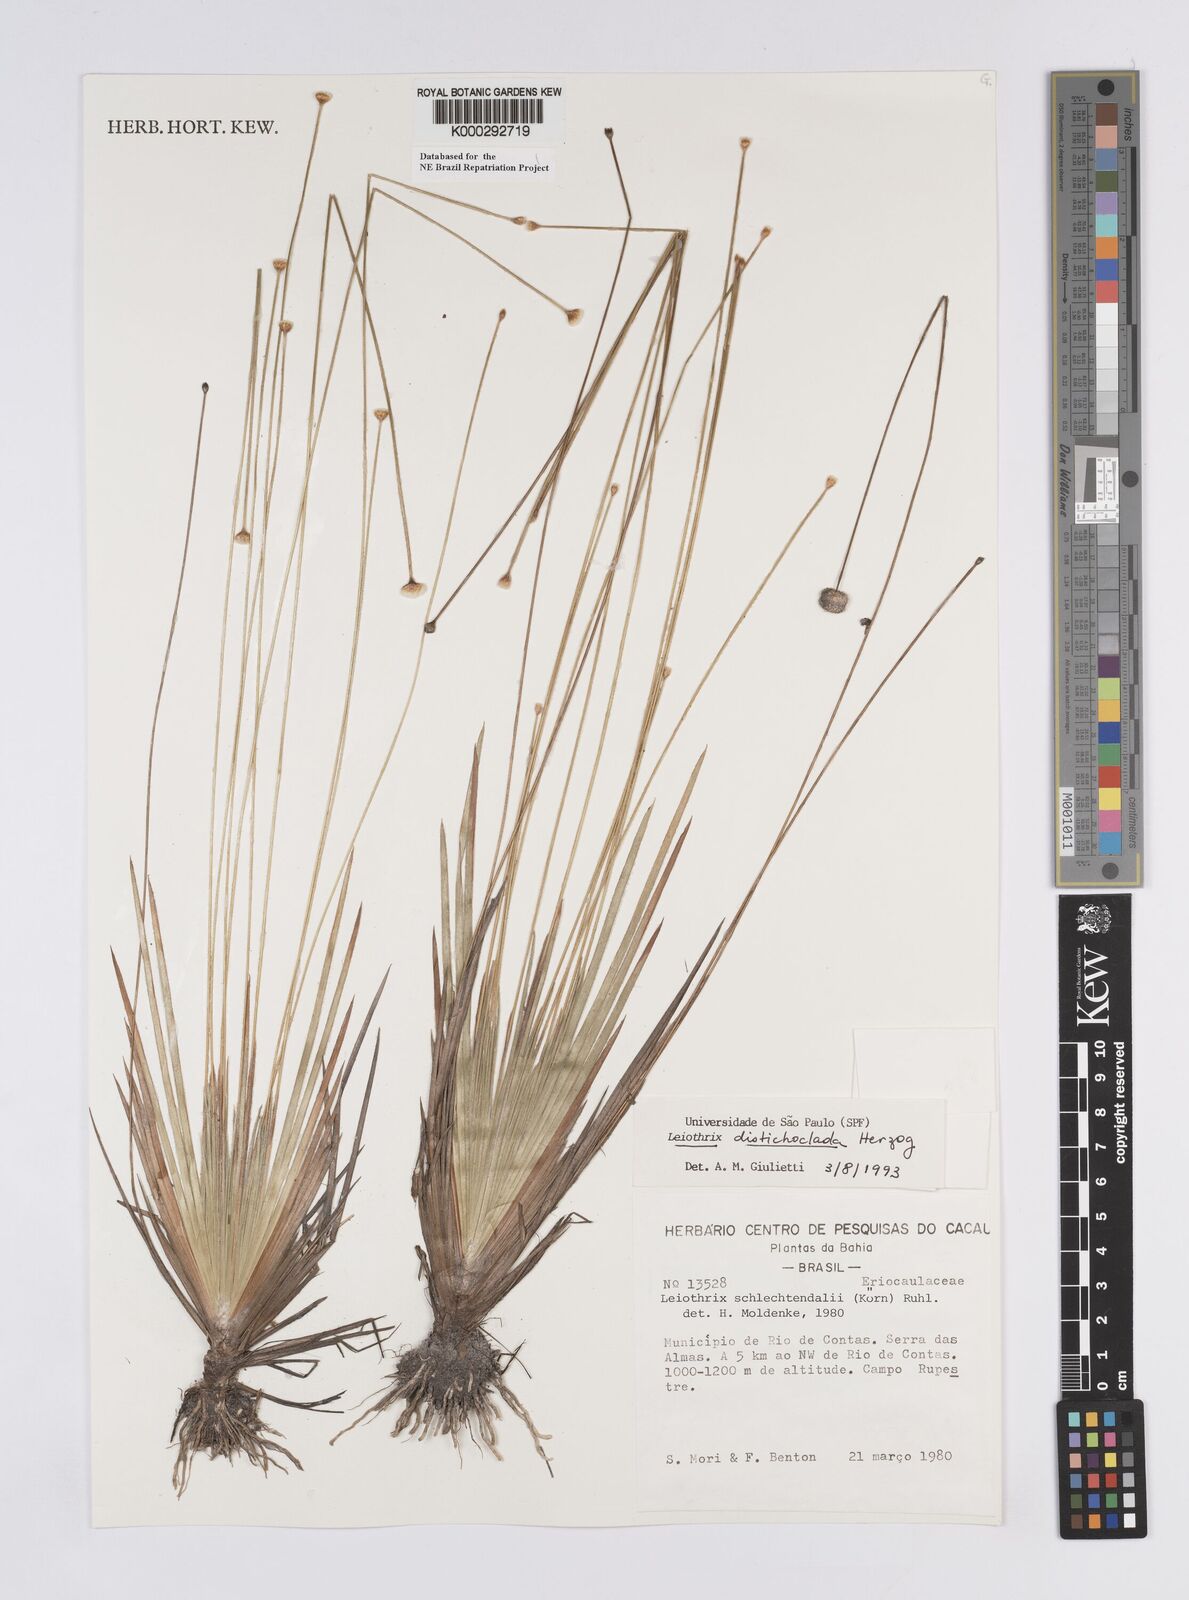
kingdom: Plantae
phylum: Tracheophyta
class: Liliopsida
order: Poales
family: Eriocaulaceae
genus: Leiothrix
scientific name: Leiothrix distichoclada
